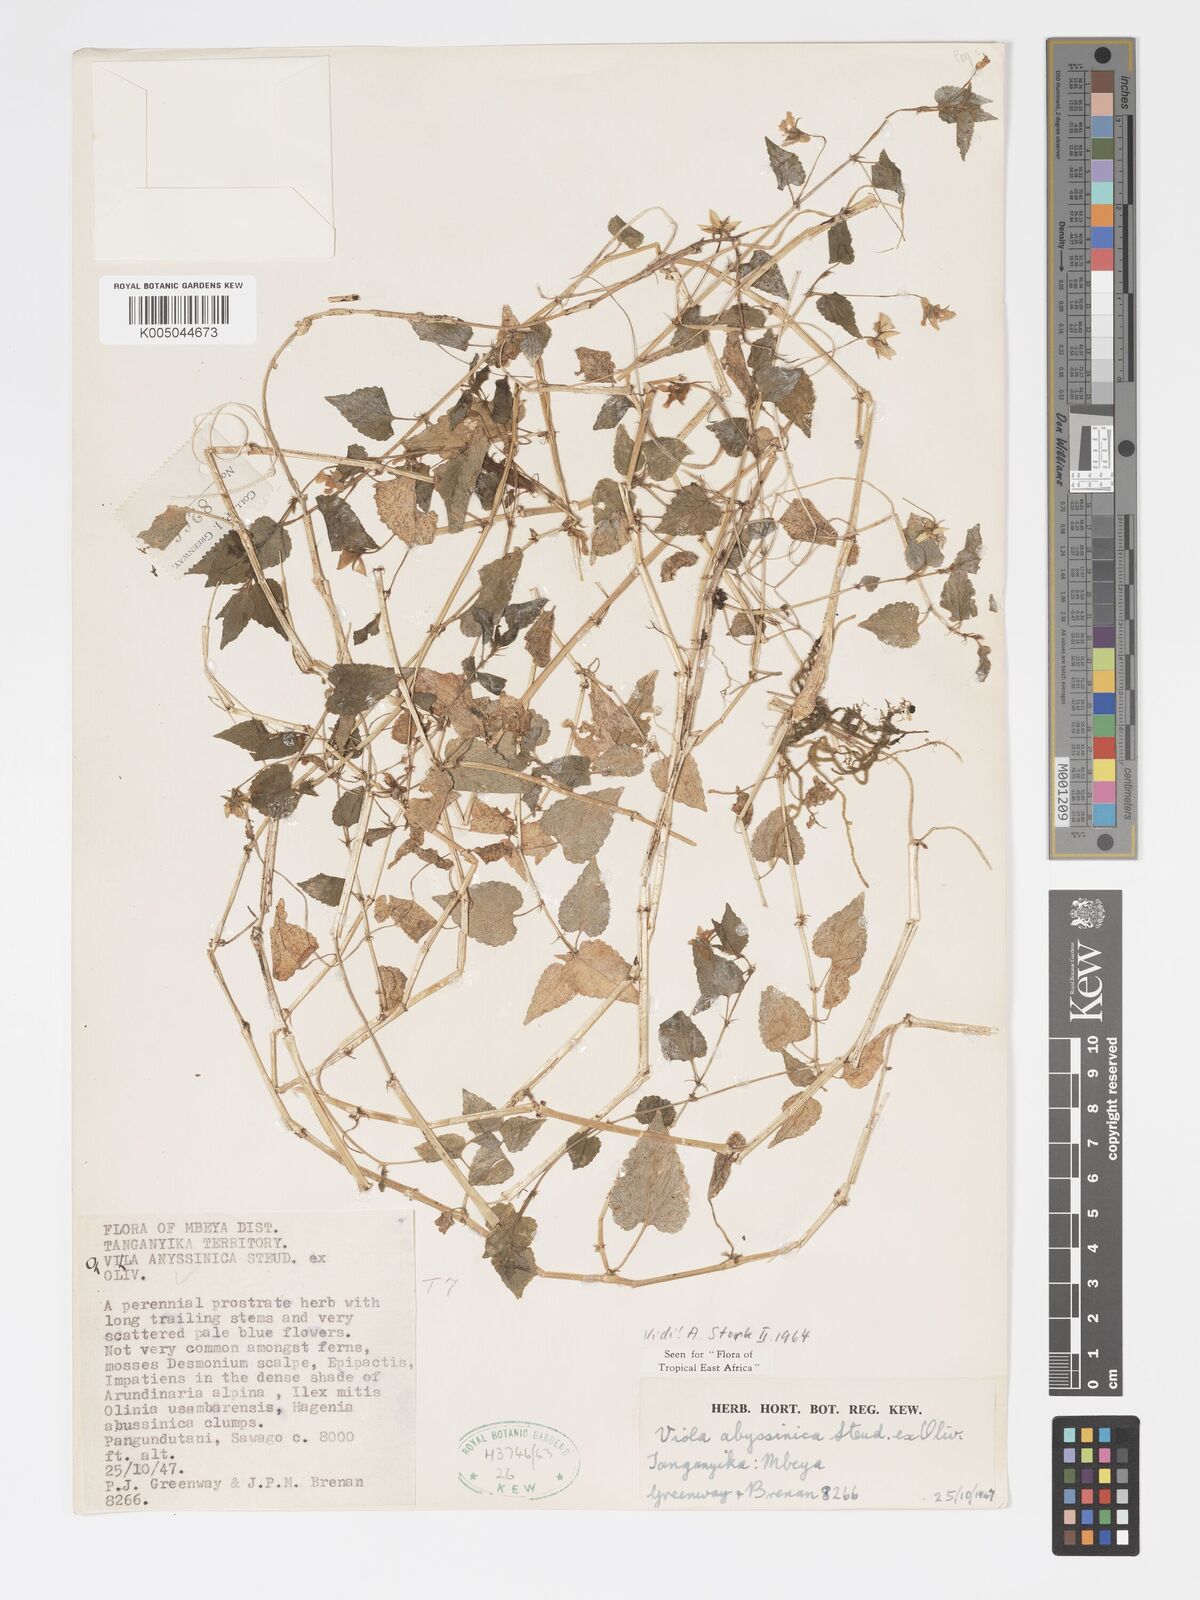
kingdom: Plantae
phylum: Tracheophyta
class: Magnoliopsida
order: Malpighiales
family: Violaceae
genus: Viola
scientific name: Viola abyssinica
